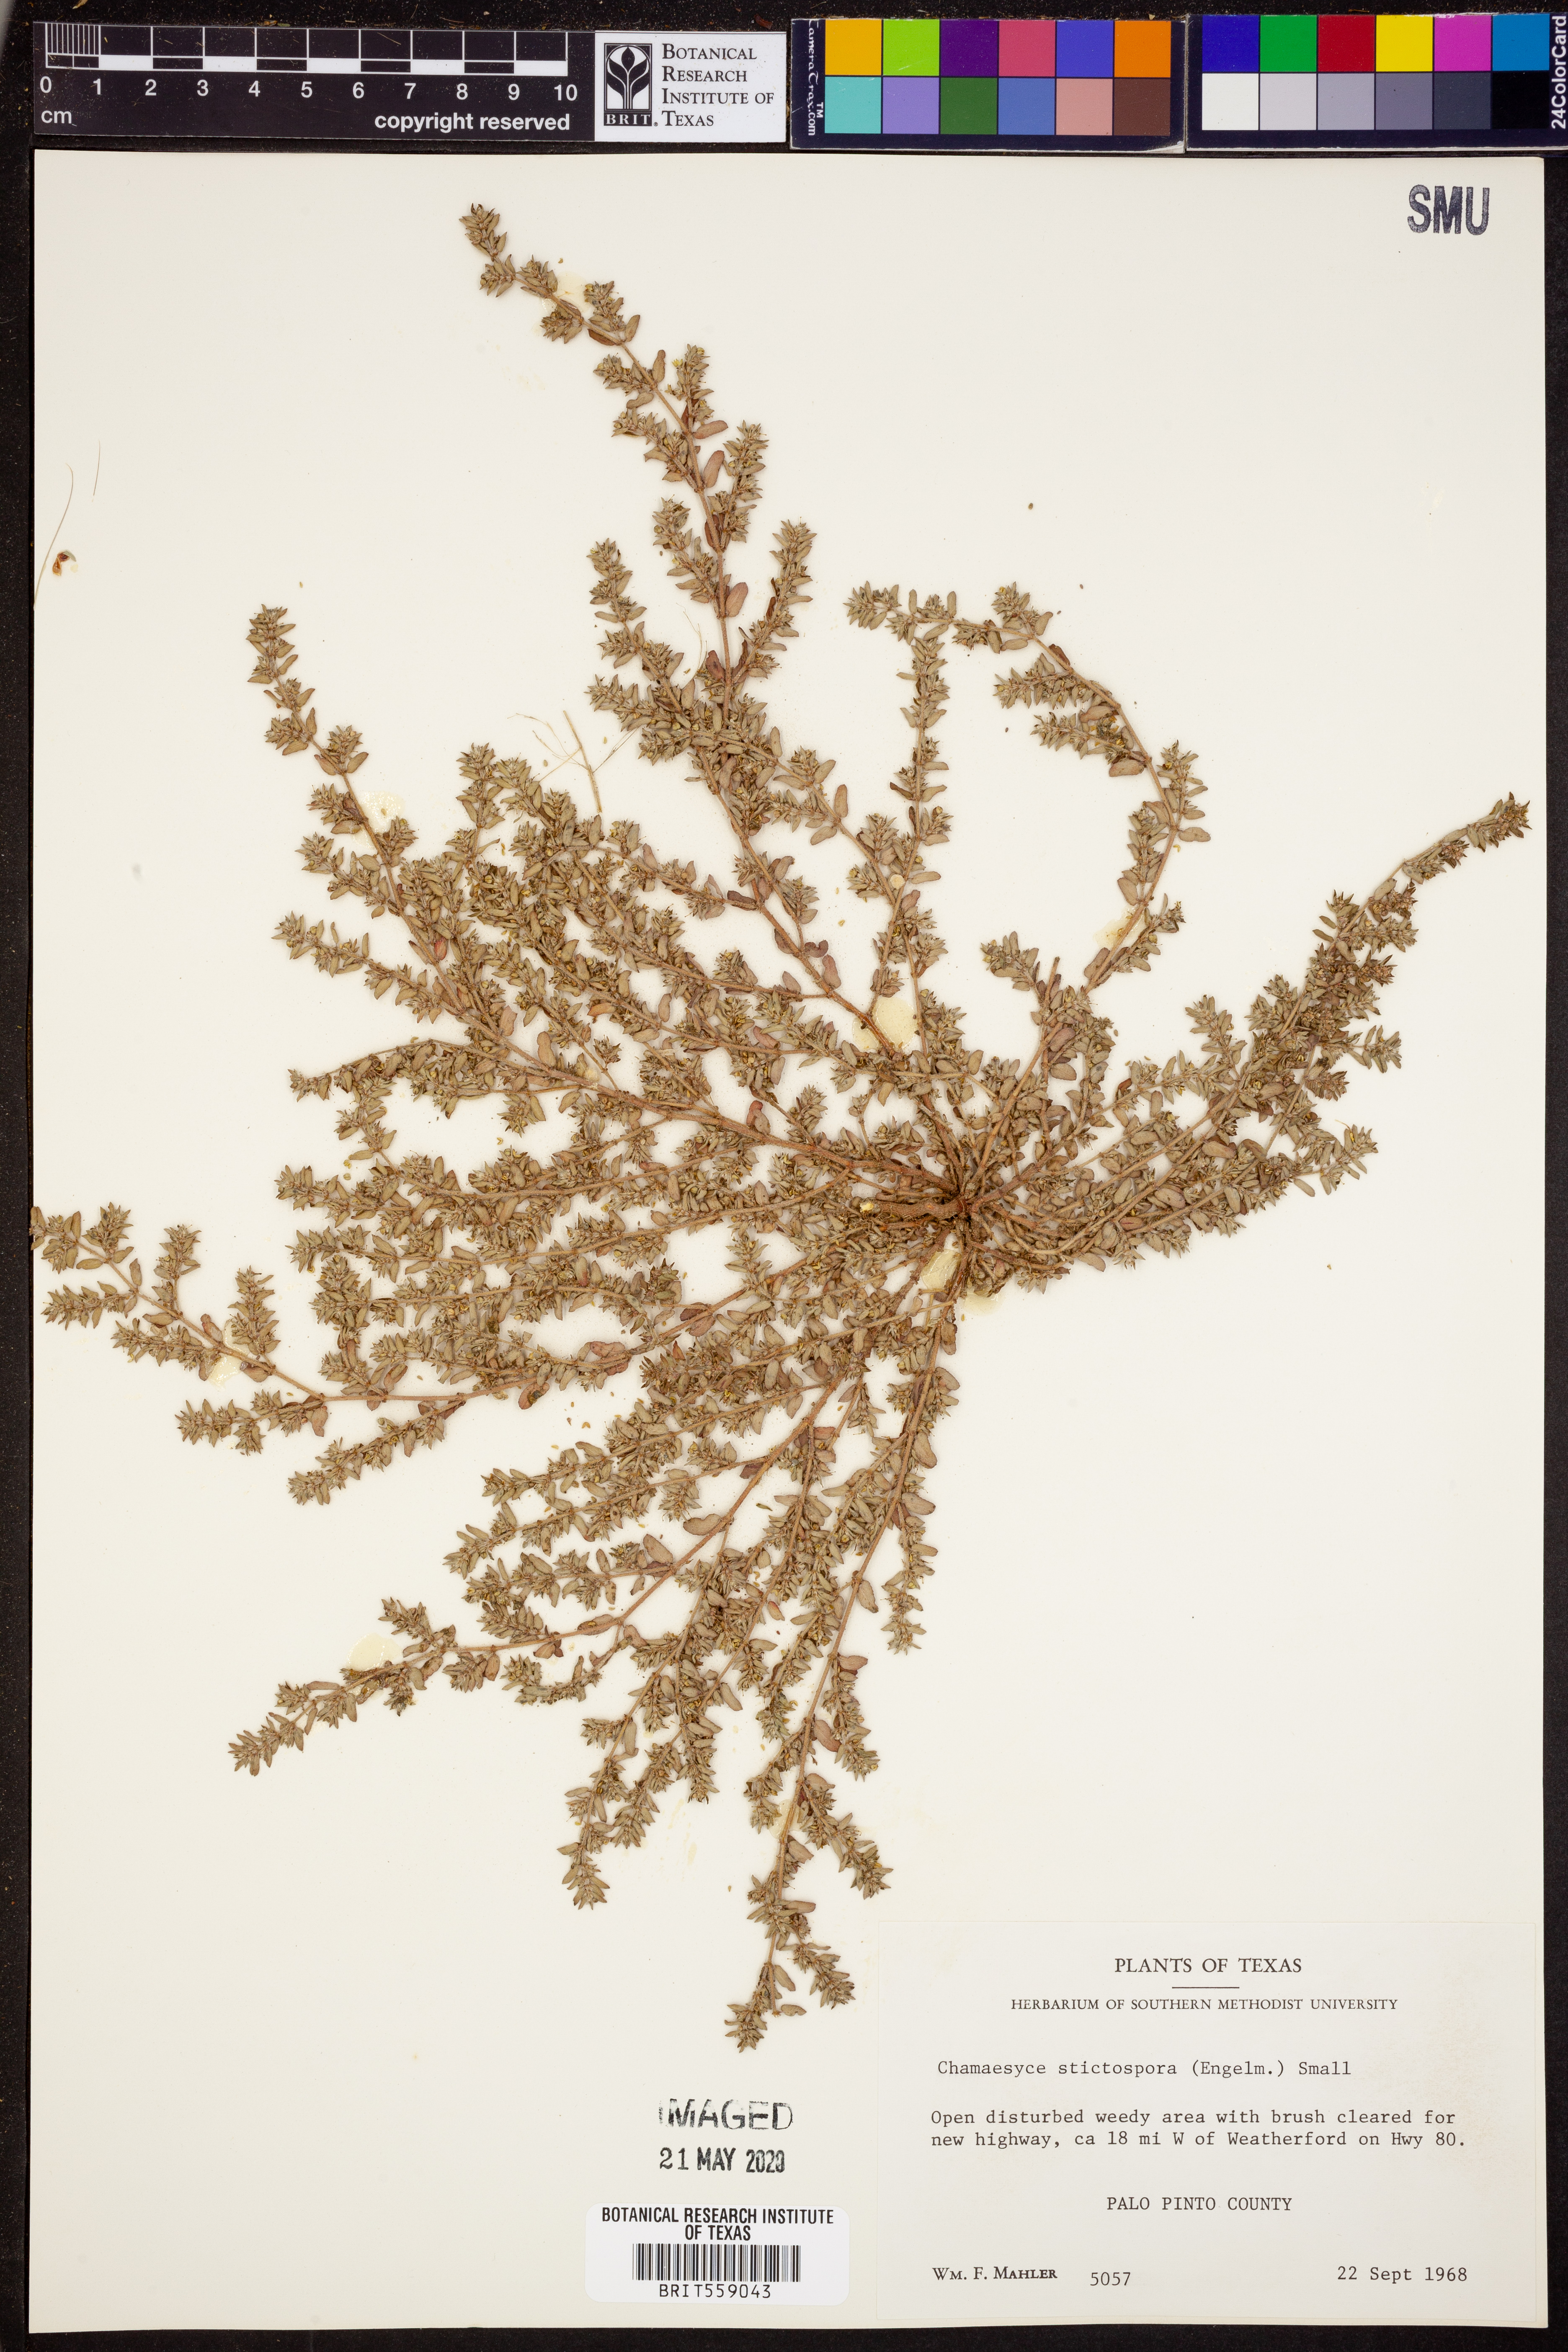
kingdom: Plantae
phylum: Tracheophyta
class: Magnoliopsida
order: Malpighiales
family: Euphorbiaceae
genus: Euphorbia
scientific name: Euphorbia stictospora
